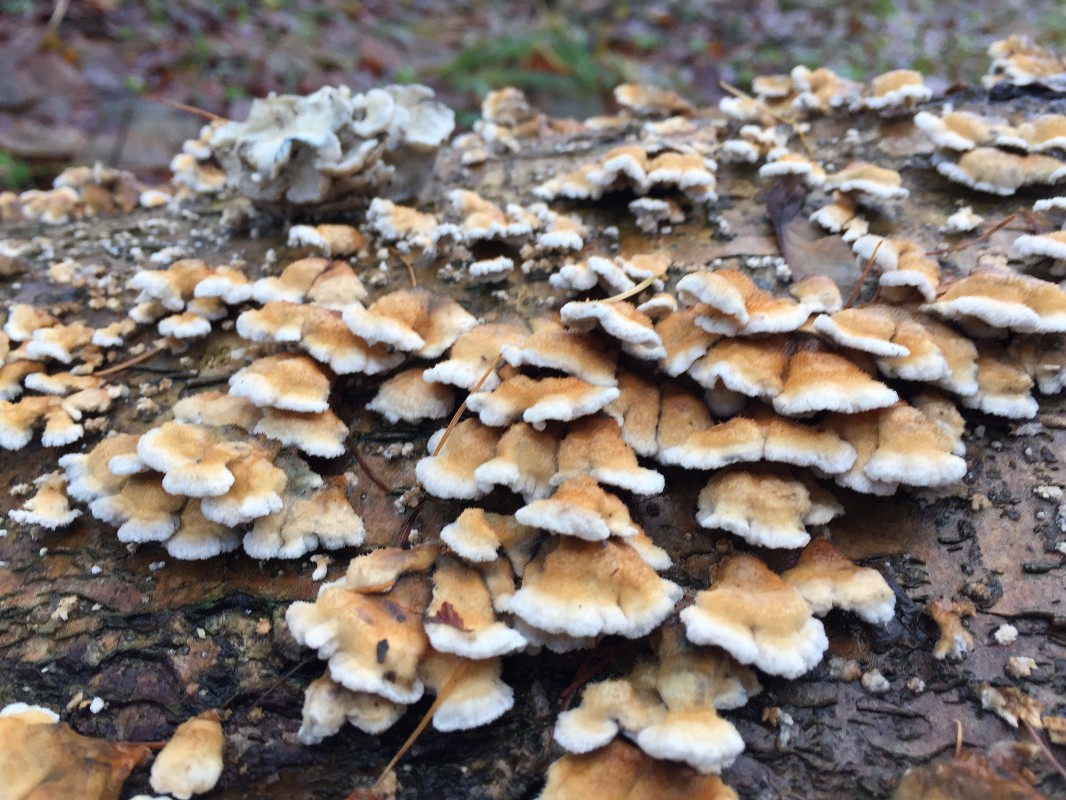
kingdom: Fungi
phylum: Basidiomycota
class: Agaricomycetes
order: Amylocorticiales
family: Amylocorticiaceae
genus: Plicaturopsis
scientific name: Plicaturopsis crispa
